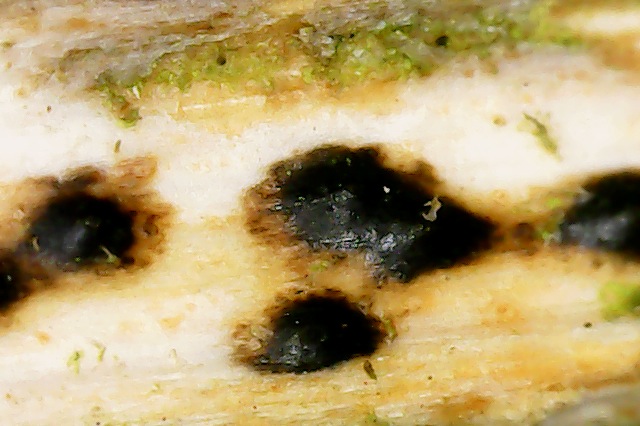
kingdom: Fungi
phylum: Ascomycota
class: Sordariomycetes
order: Amphisphaeriales
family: Clypeosphaeriaceae
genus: Clypeosphaeria
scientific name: Clypeosphaeria mamillana
